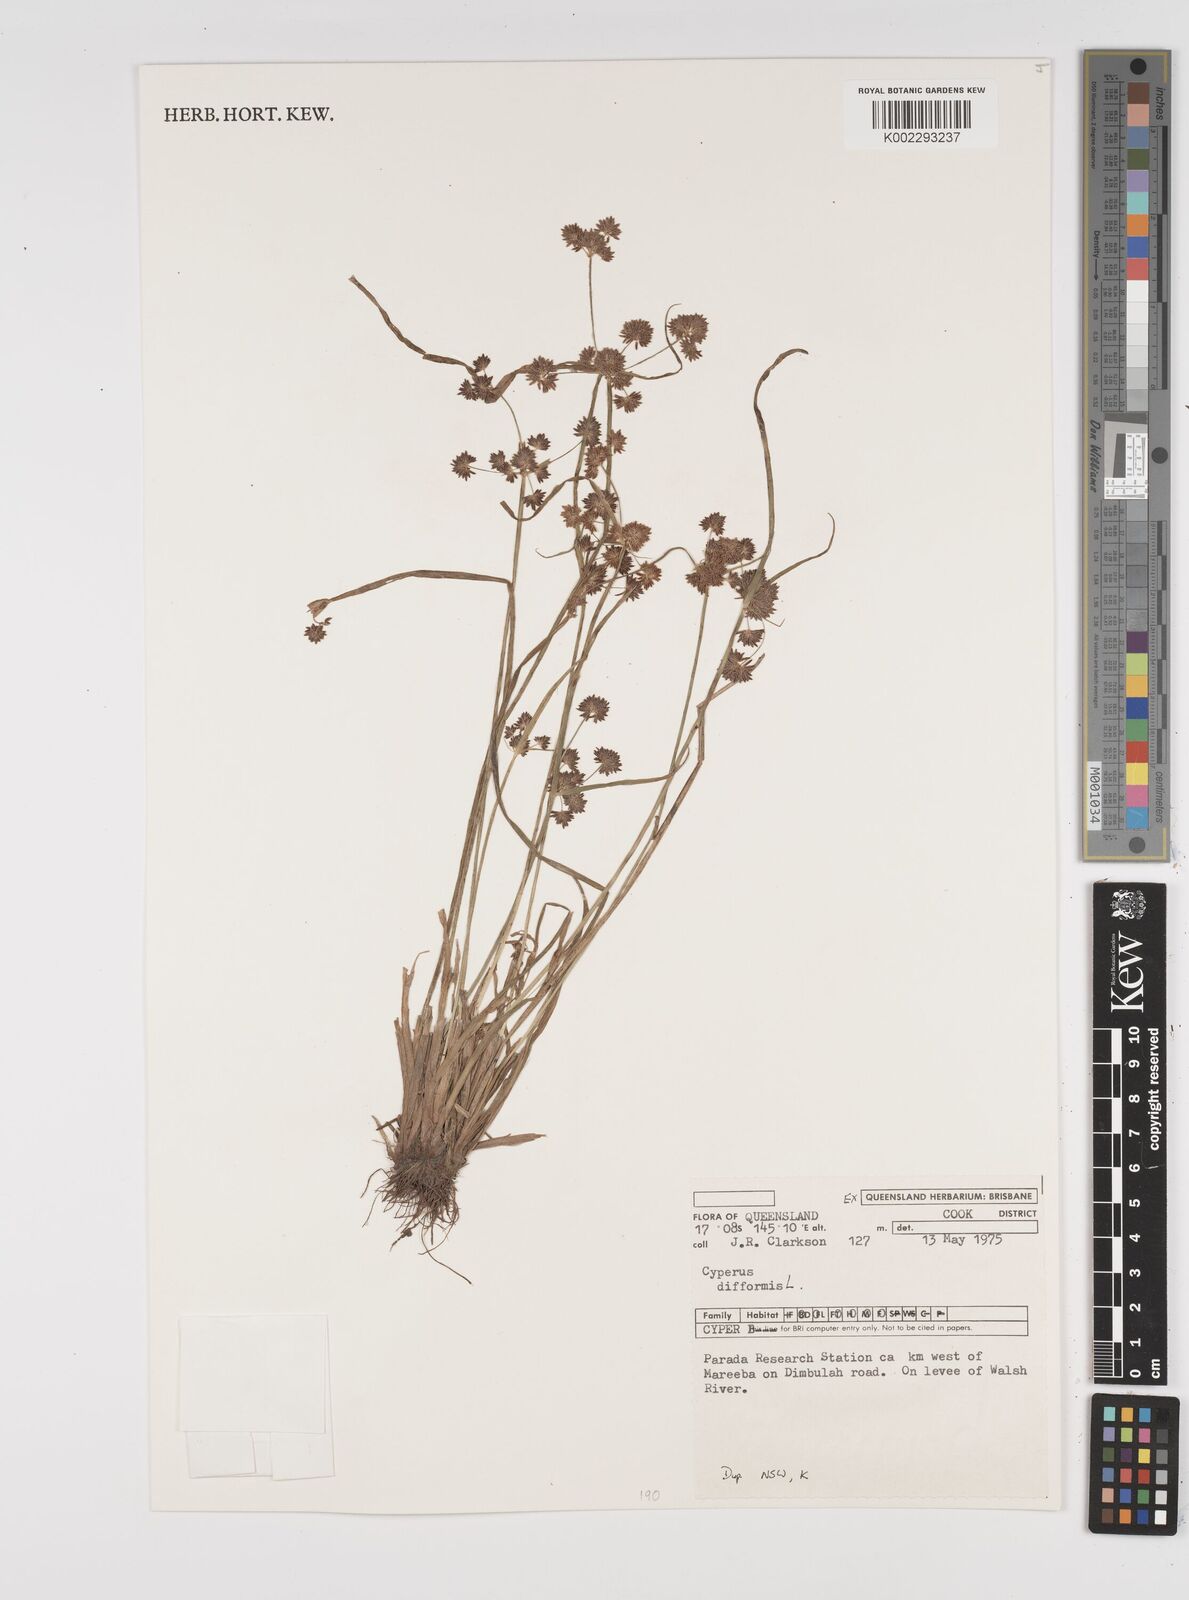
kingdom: Plantae
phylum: Tracheophyta
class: Liliopsida
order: Poales
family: Cyperaceae
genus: Cyperus
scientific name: Cyperus difformis
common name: Variable flatsedge
